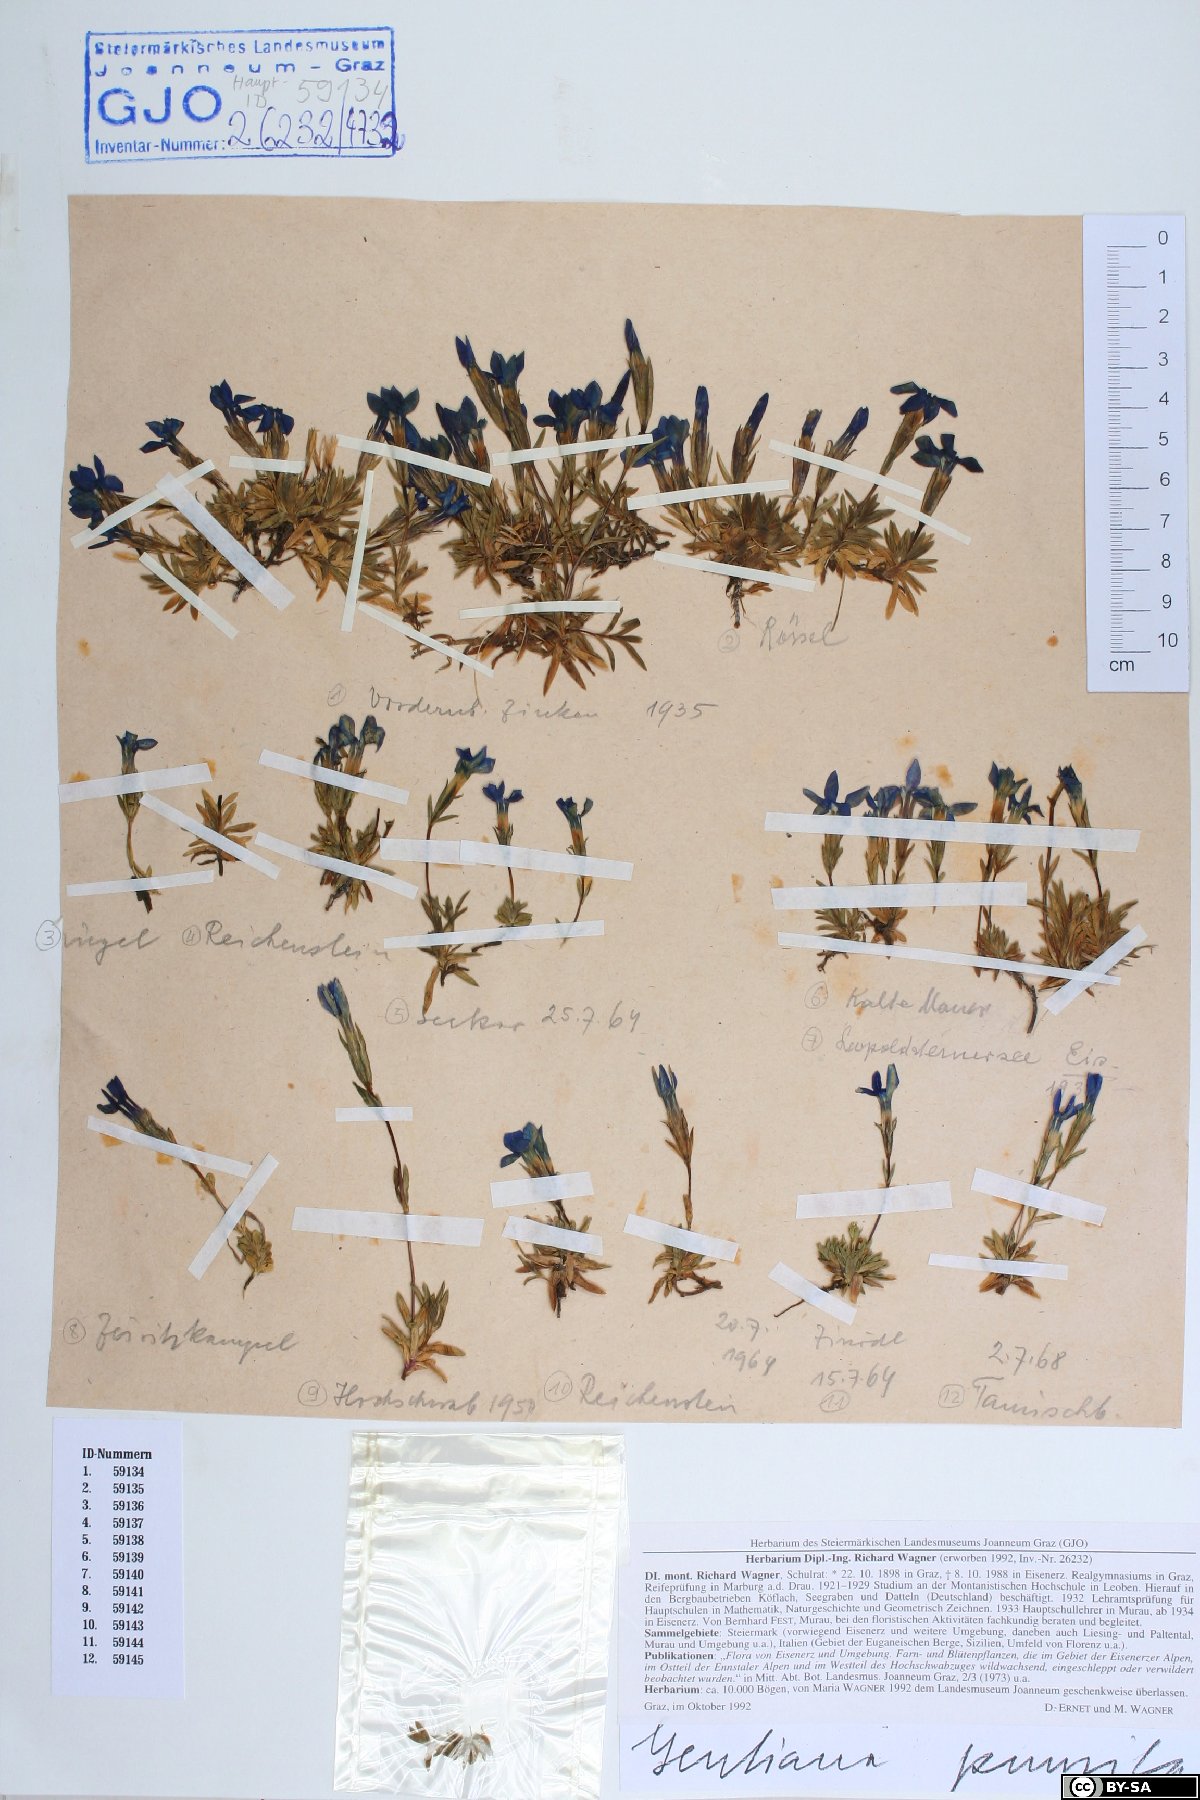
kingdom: Plantae
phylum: Tracheophyta
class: Magnoliopsida
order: Gentianales
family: Gentianaceae
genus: Gentiana
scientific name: Gentiana pumila
